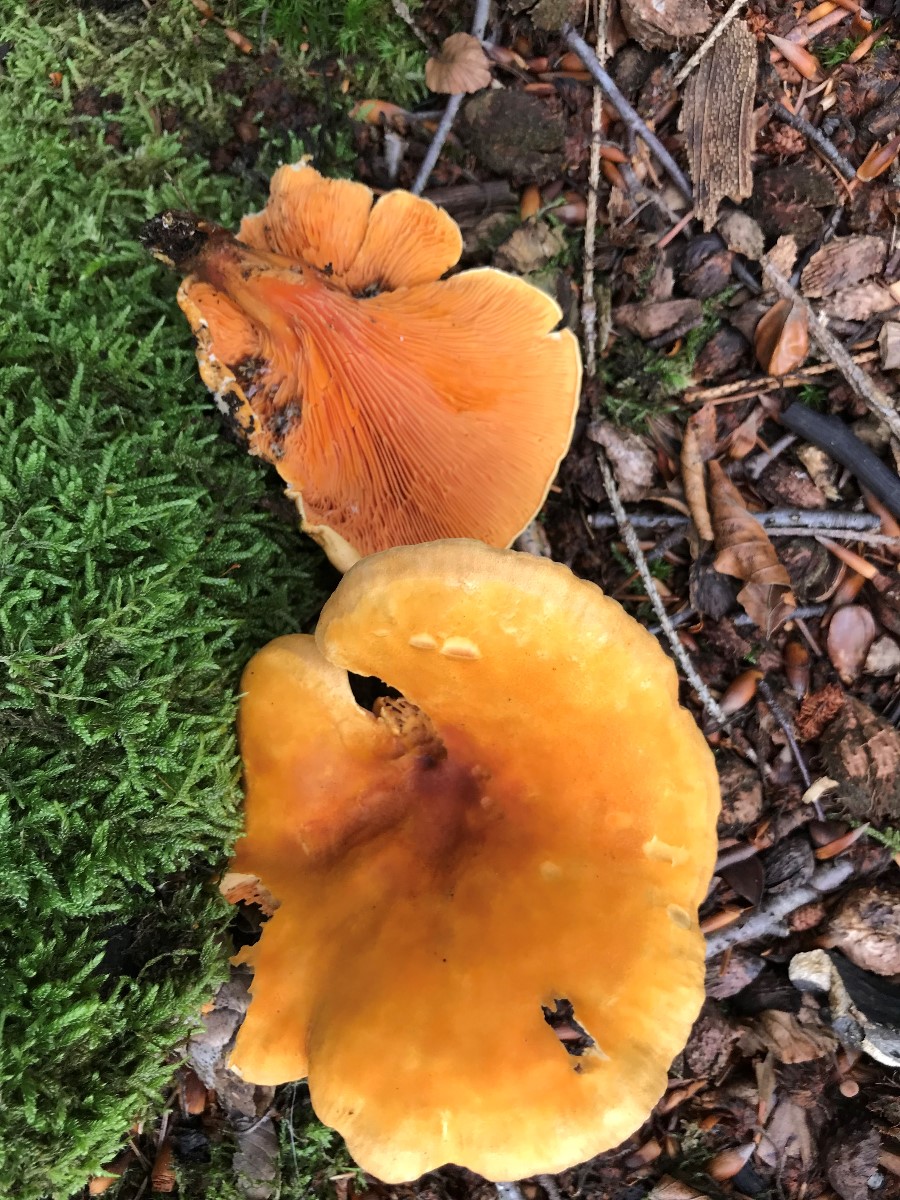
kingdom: Fungi
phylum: Basidiomycota
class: Agaricomycetes
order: Boletales
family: Hygrophoropsidaceae
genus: Hygrophoropsis
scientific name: Hygrophoropsis rufa
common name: brunfiltet orangekantarel
